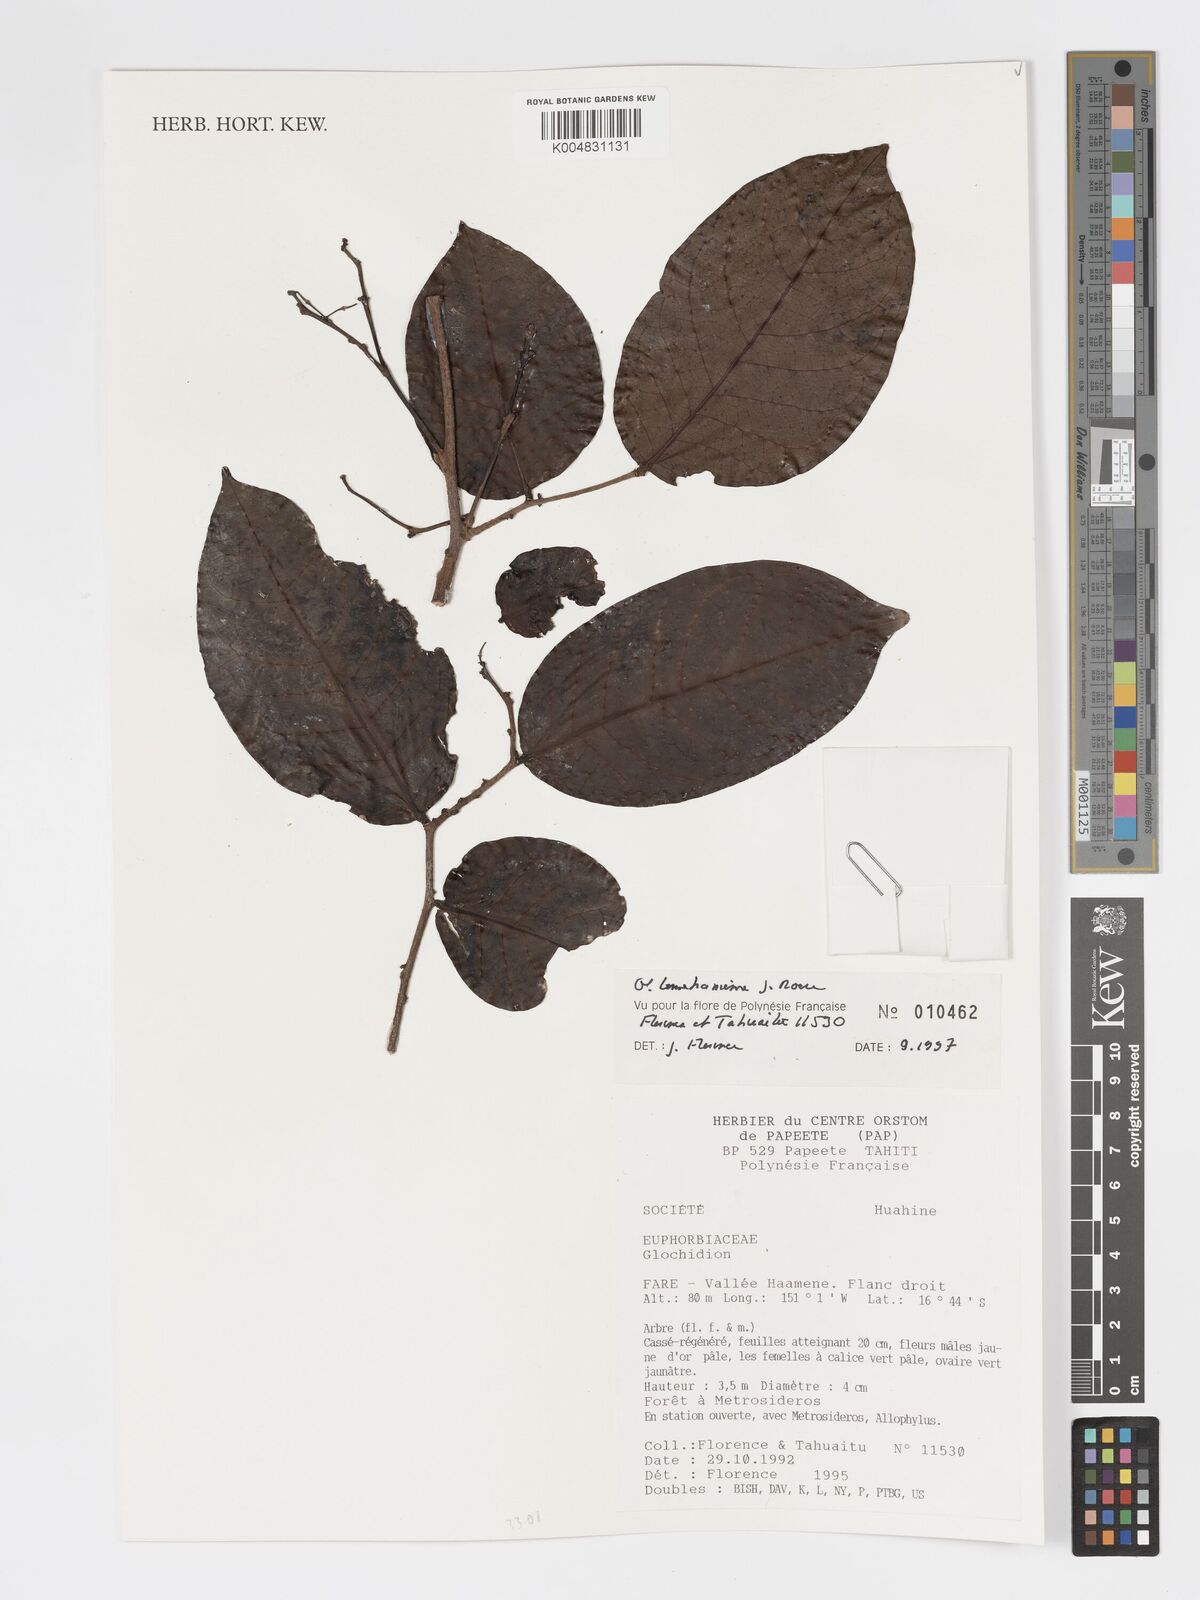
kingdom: Plantae
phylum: Tracheophyta
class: Magnoliopsida
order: Malpighiales
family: Phyllanthaceae
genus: Glochidion
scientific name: Glochidion temehaniense
